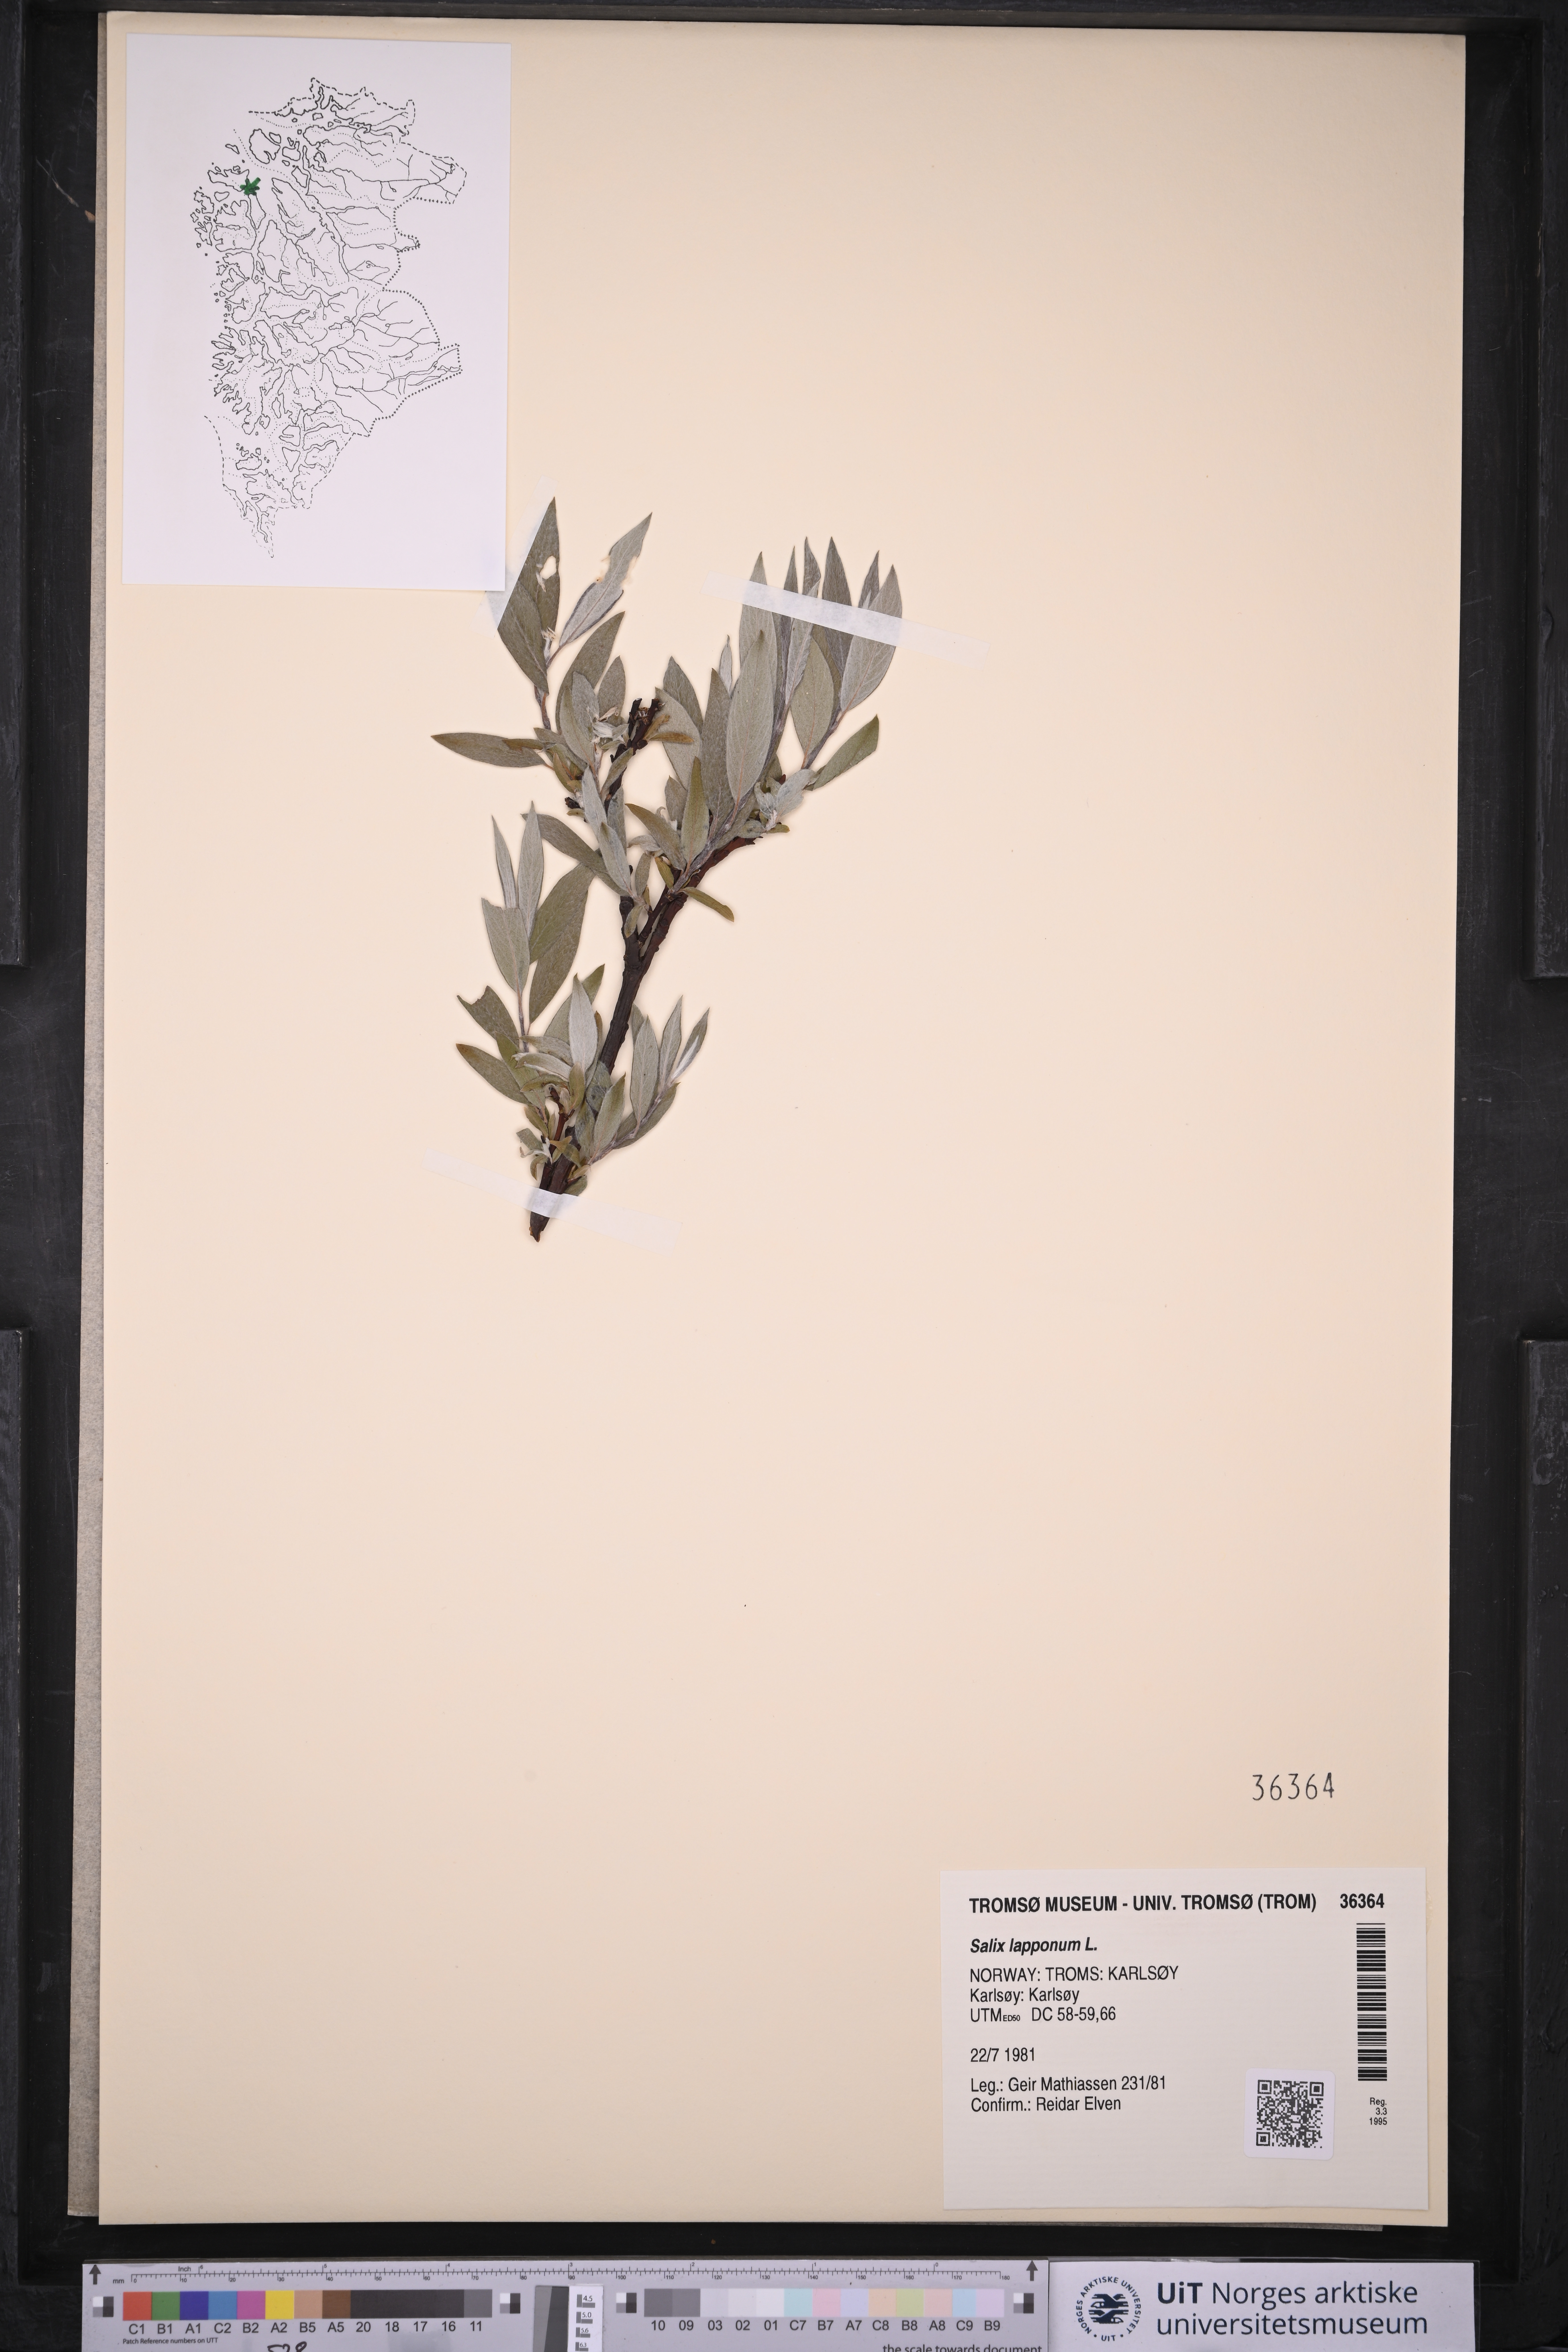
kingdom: Plantae
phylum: Tracheophyta
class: Magnoliopsida
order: Malpighiales
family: Salicaceae
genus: Salix
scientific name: Salix lapponum
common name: Downy willow
